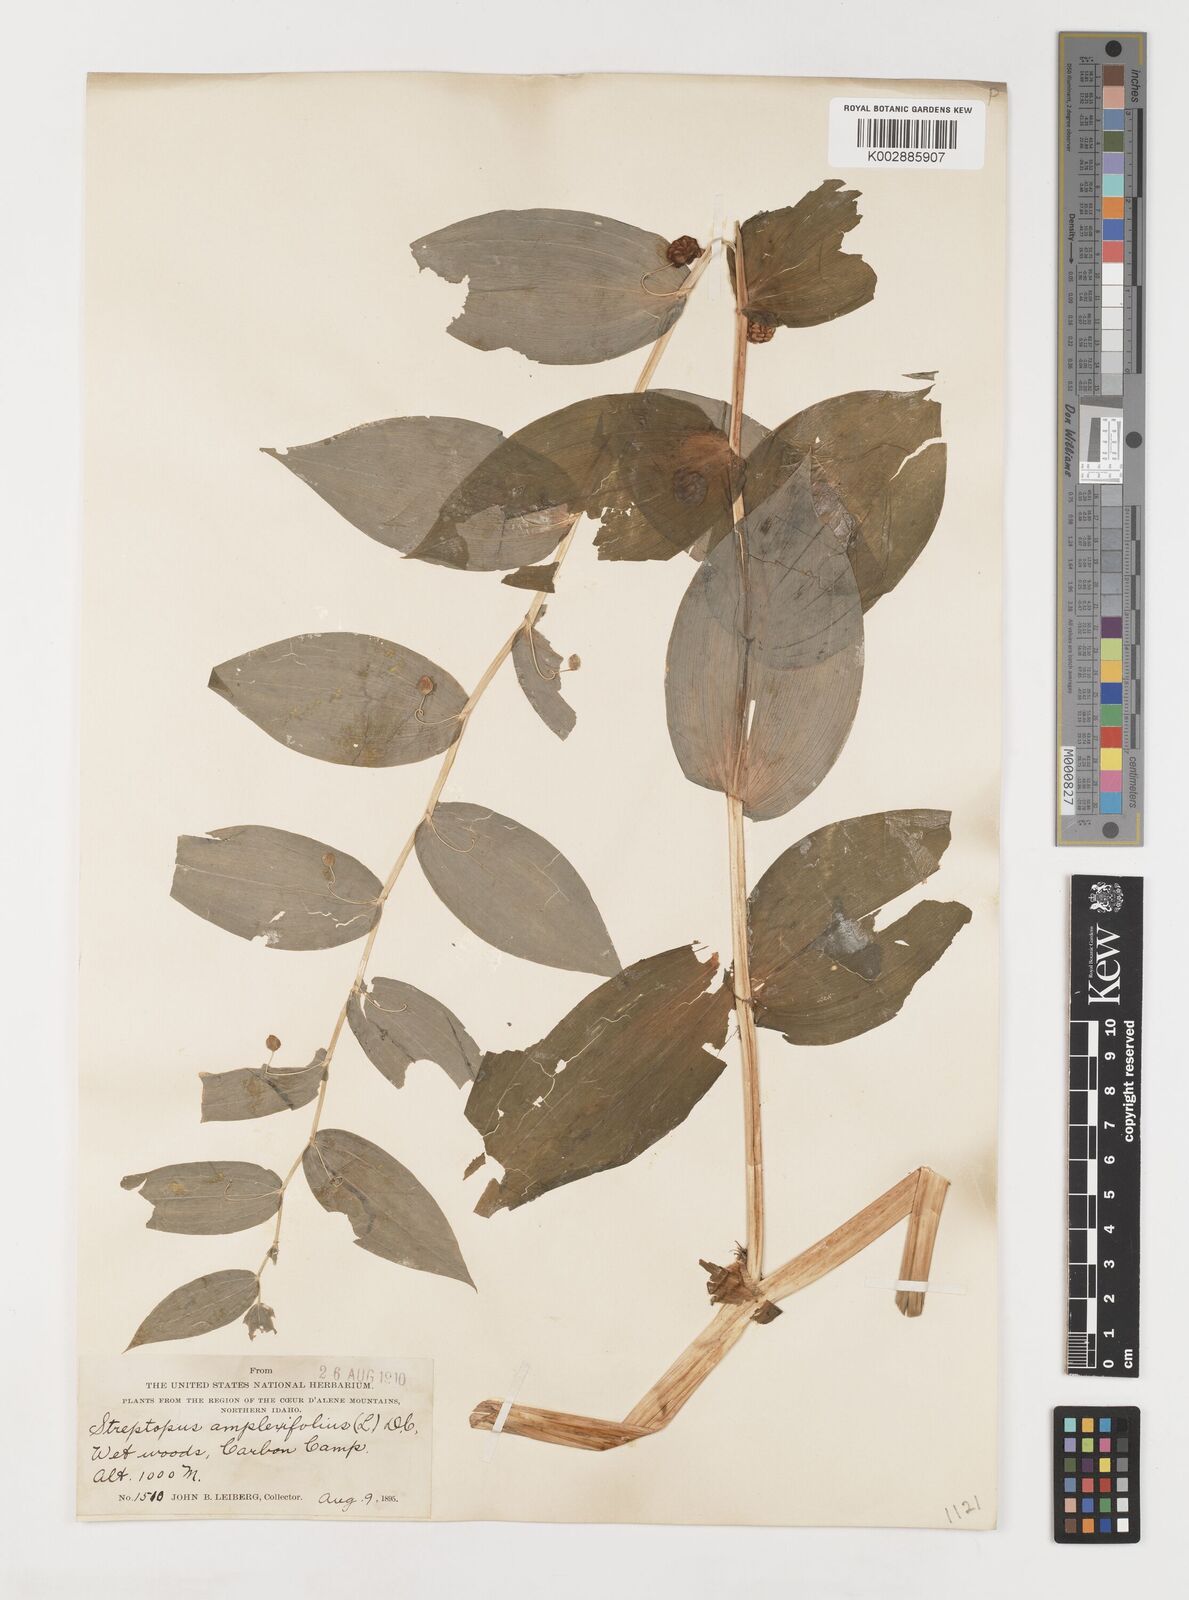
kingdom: Plantae
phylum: Tracheophyta
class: Liliopsida
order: Liliales
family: Liliaceae
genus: Streptopus
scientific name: Streptopus amplexifolius
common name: Clasp twisted stalk
